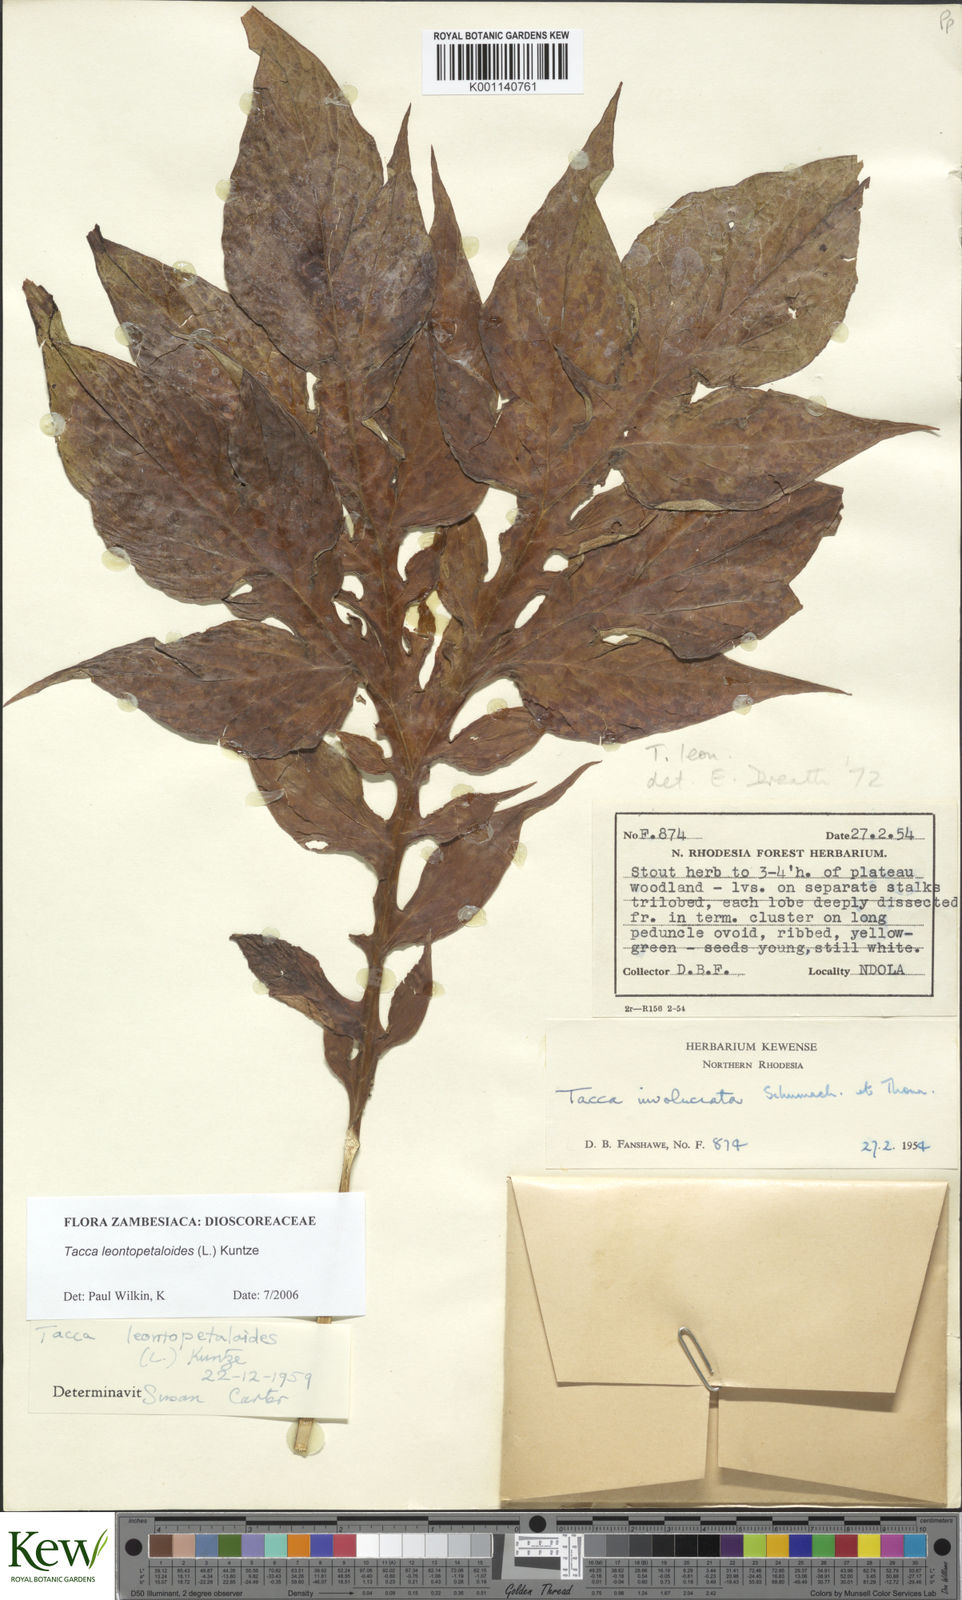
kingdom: Plantae
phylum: Tracheophyta
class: Liliopsida
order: Dioscoreales
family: Dioscoreaceae
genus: Tacca
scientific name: Tacca leontopetaloides
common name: Arrowroot
